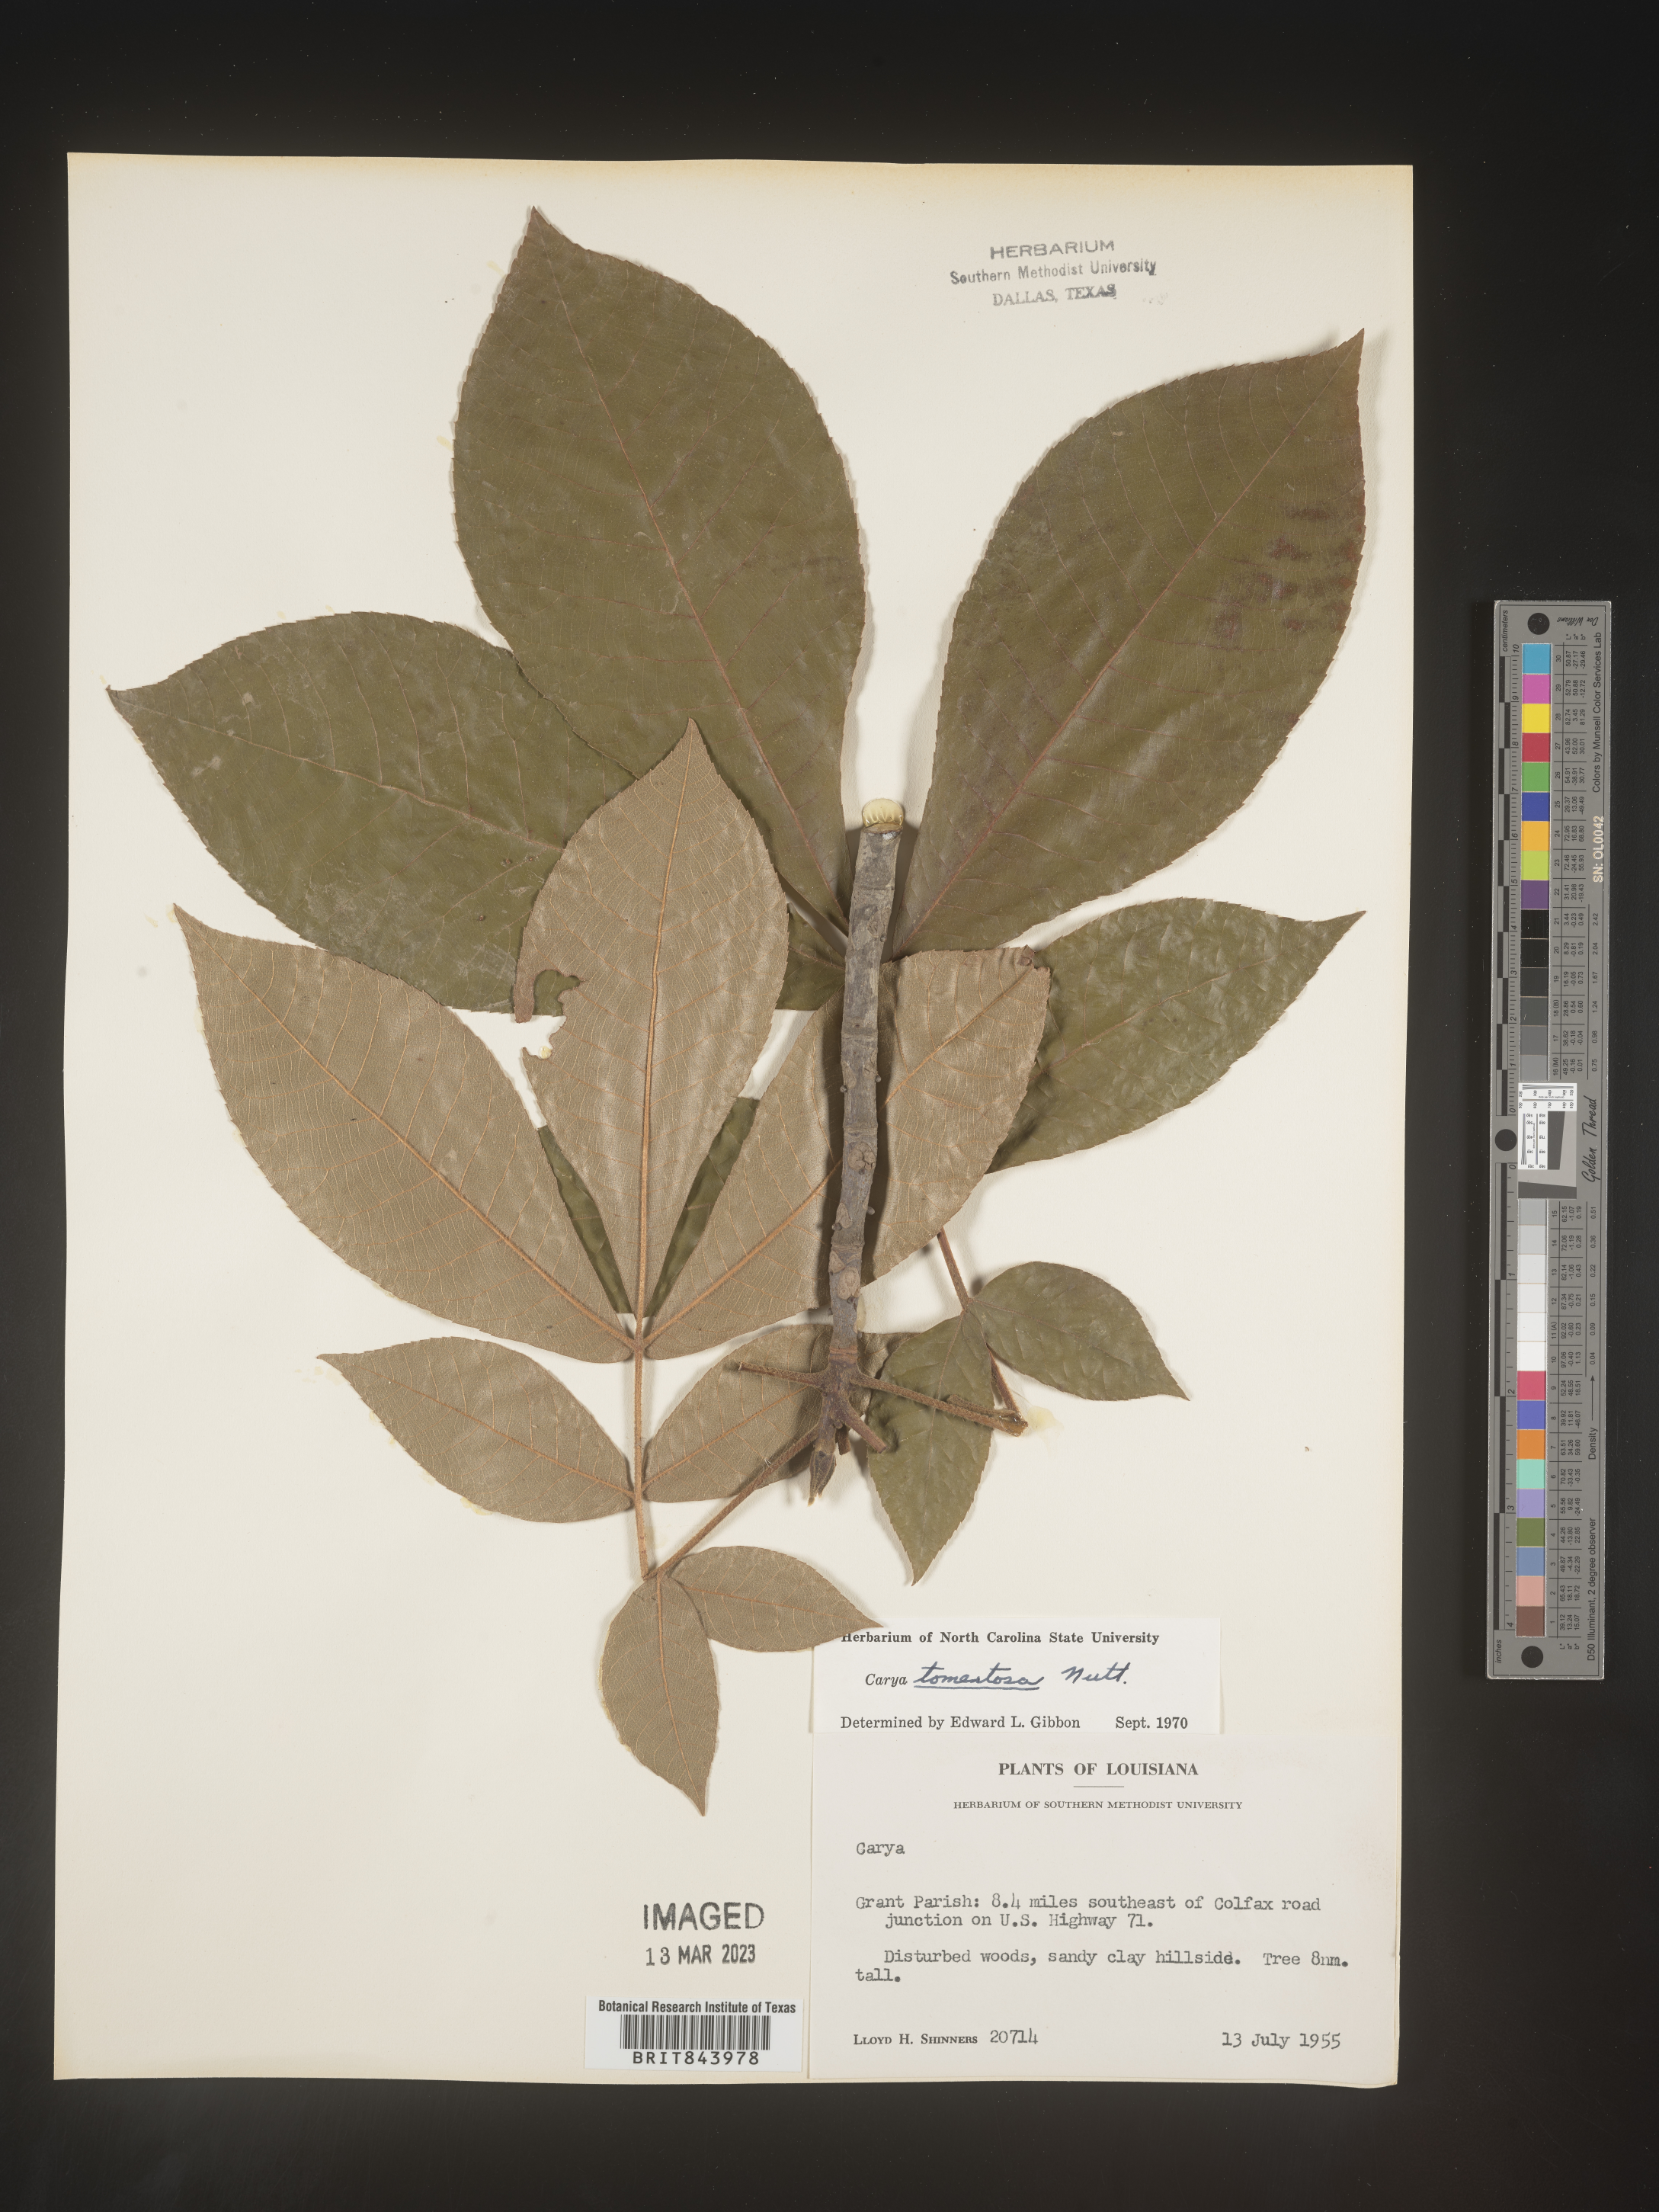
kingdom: Plantae
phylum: Tracheophyta
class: Magnoliopsida
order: Fagales
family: Juglandaceae
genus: Carya
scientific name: Carya alba
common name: Mockernut hickory
